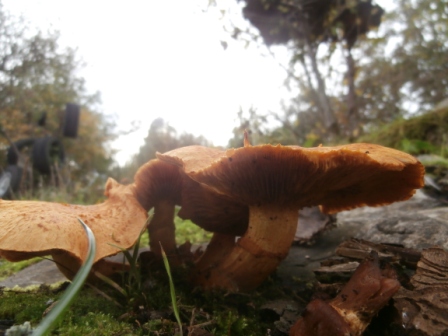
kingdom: Fungi
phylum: Basidiomycota
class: Agaricomycetes
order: Agaricales
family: Hymenogastraceae
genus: Gymnopilus
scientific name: Gymnopilus spectabilis
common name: fibret flammehat
